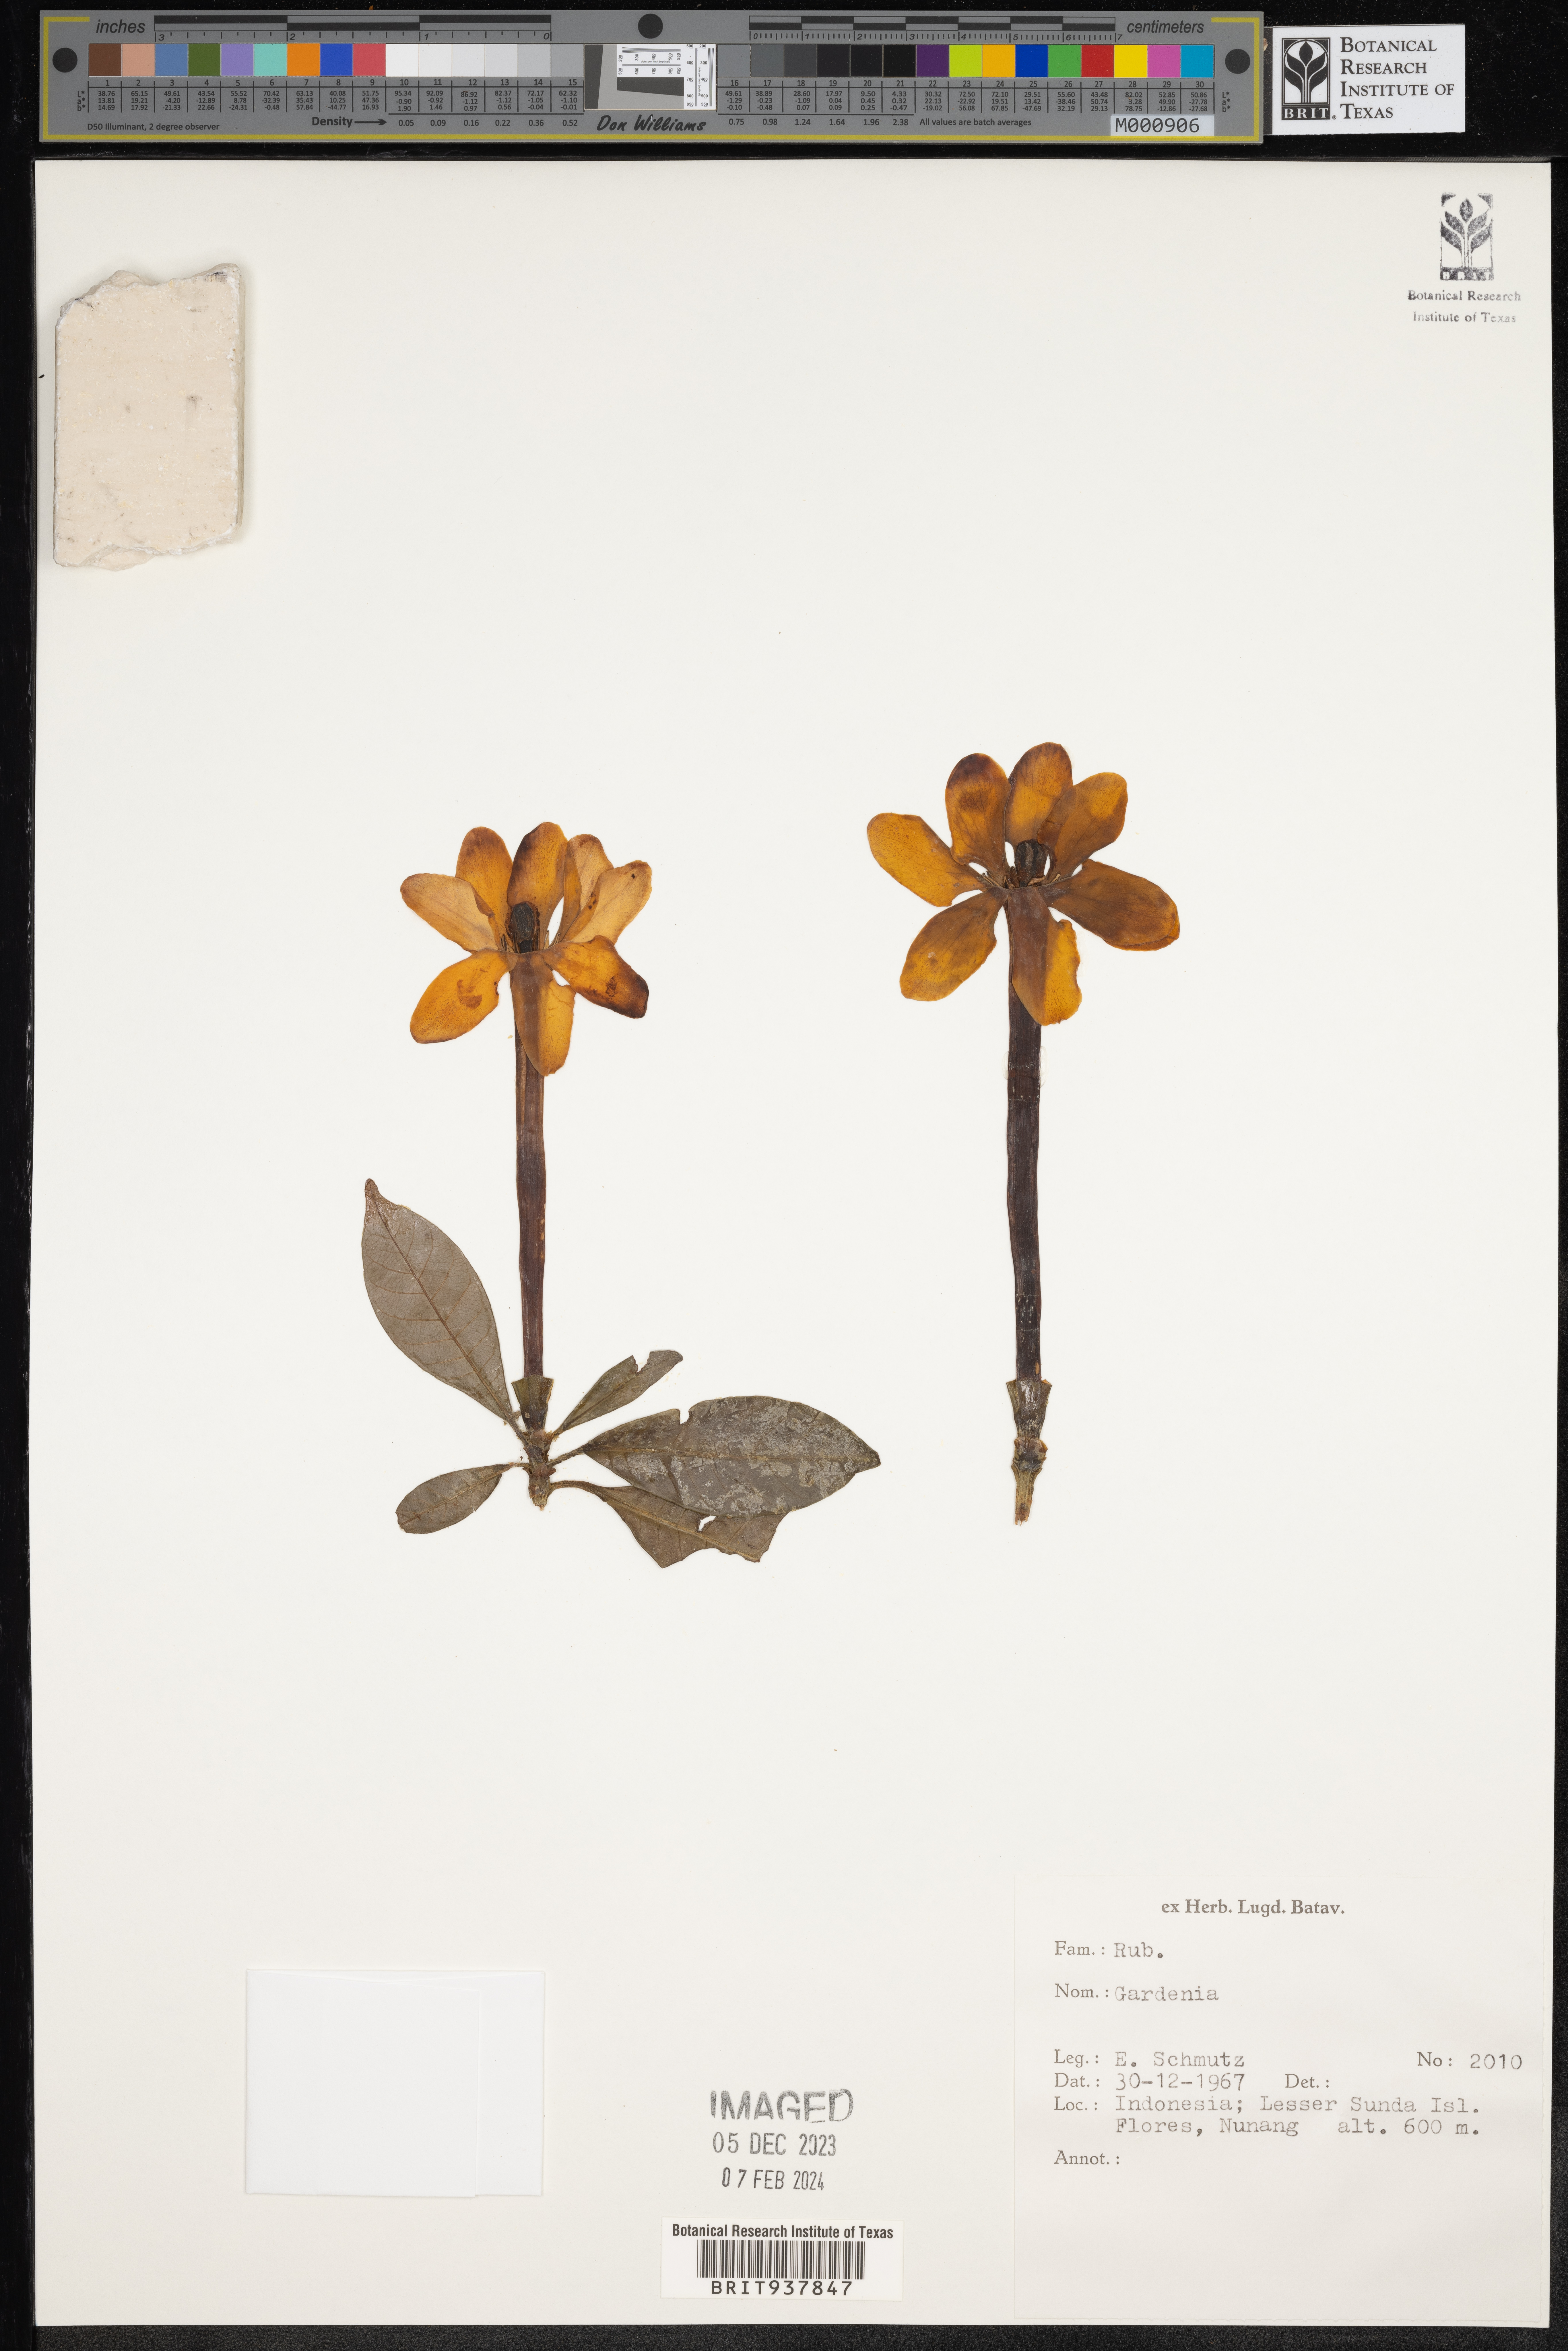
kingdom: Plantae
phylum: Tracheophyta
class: Magnoliopsida
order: Gentianales
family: Rubiaceae
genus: Gardenia
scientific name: Gardenia
